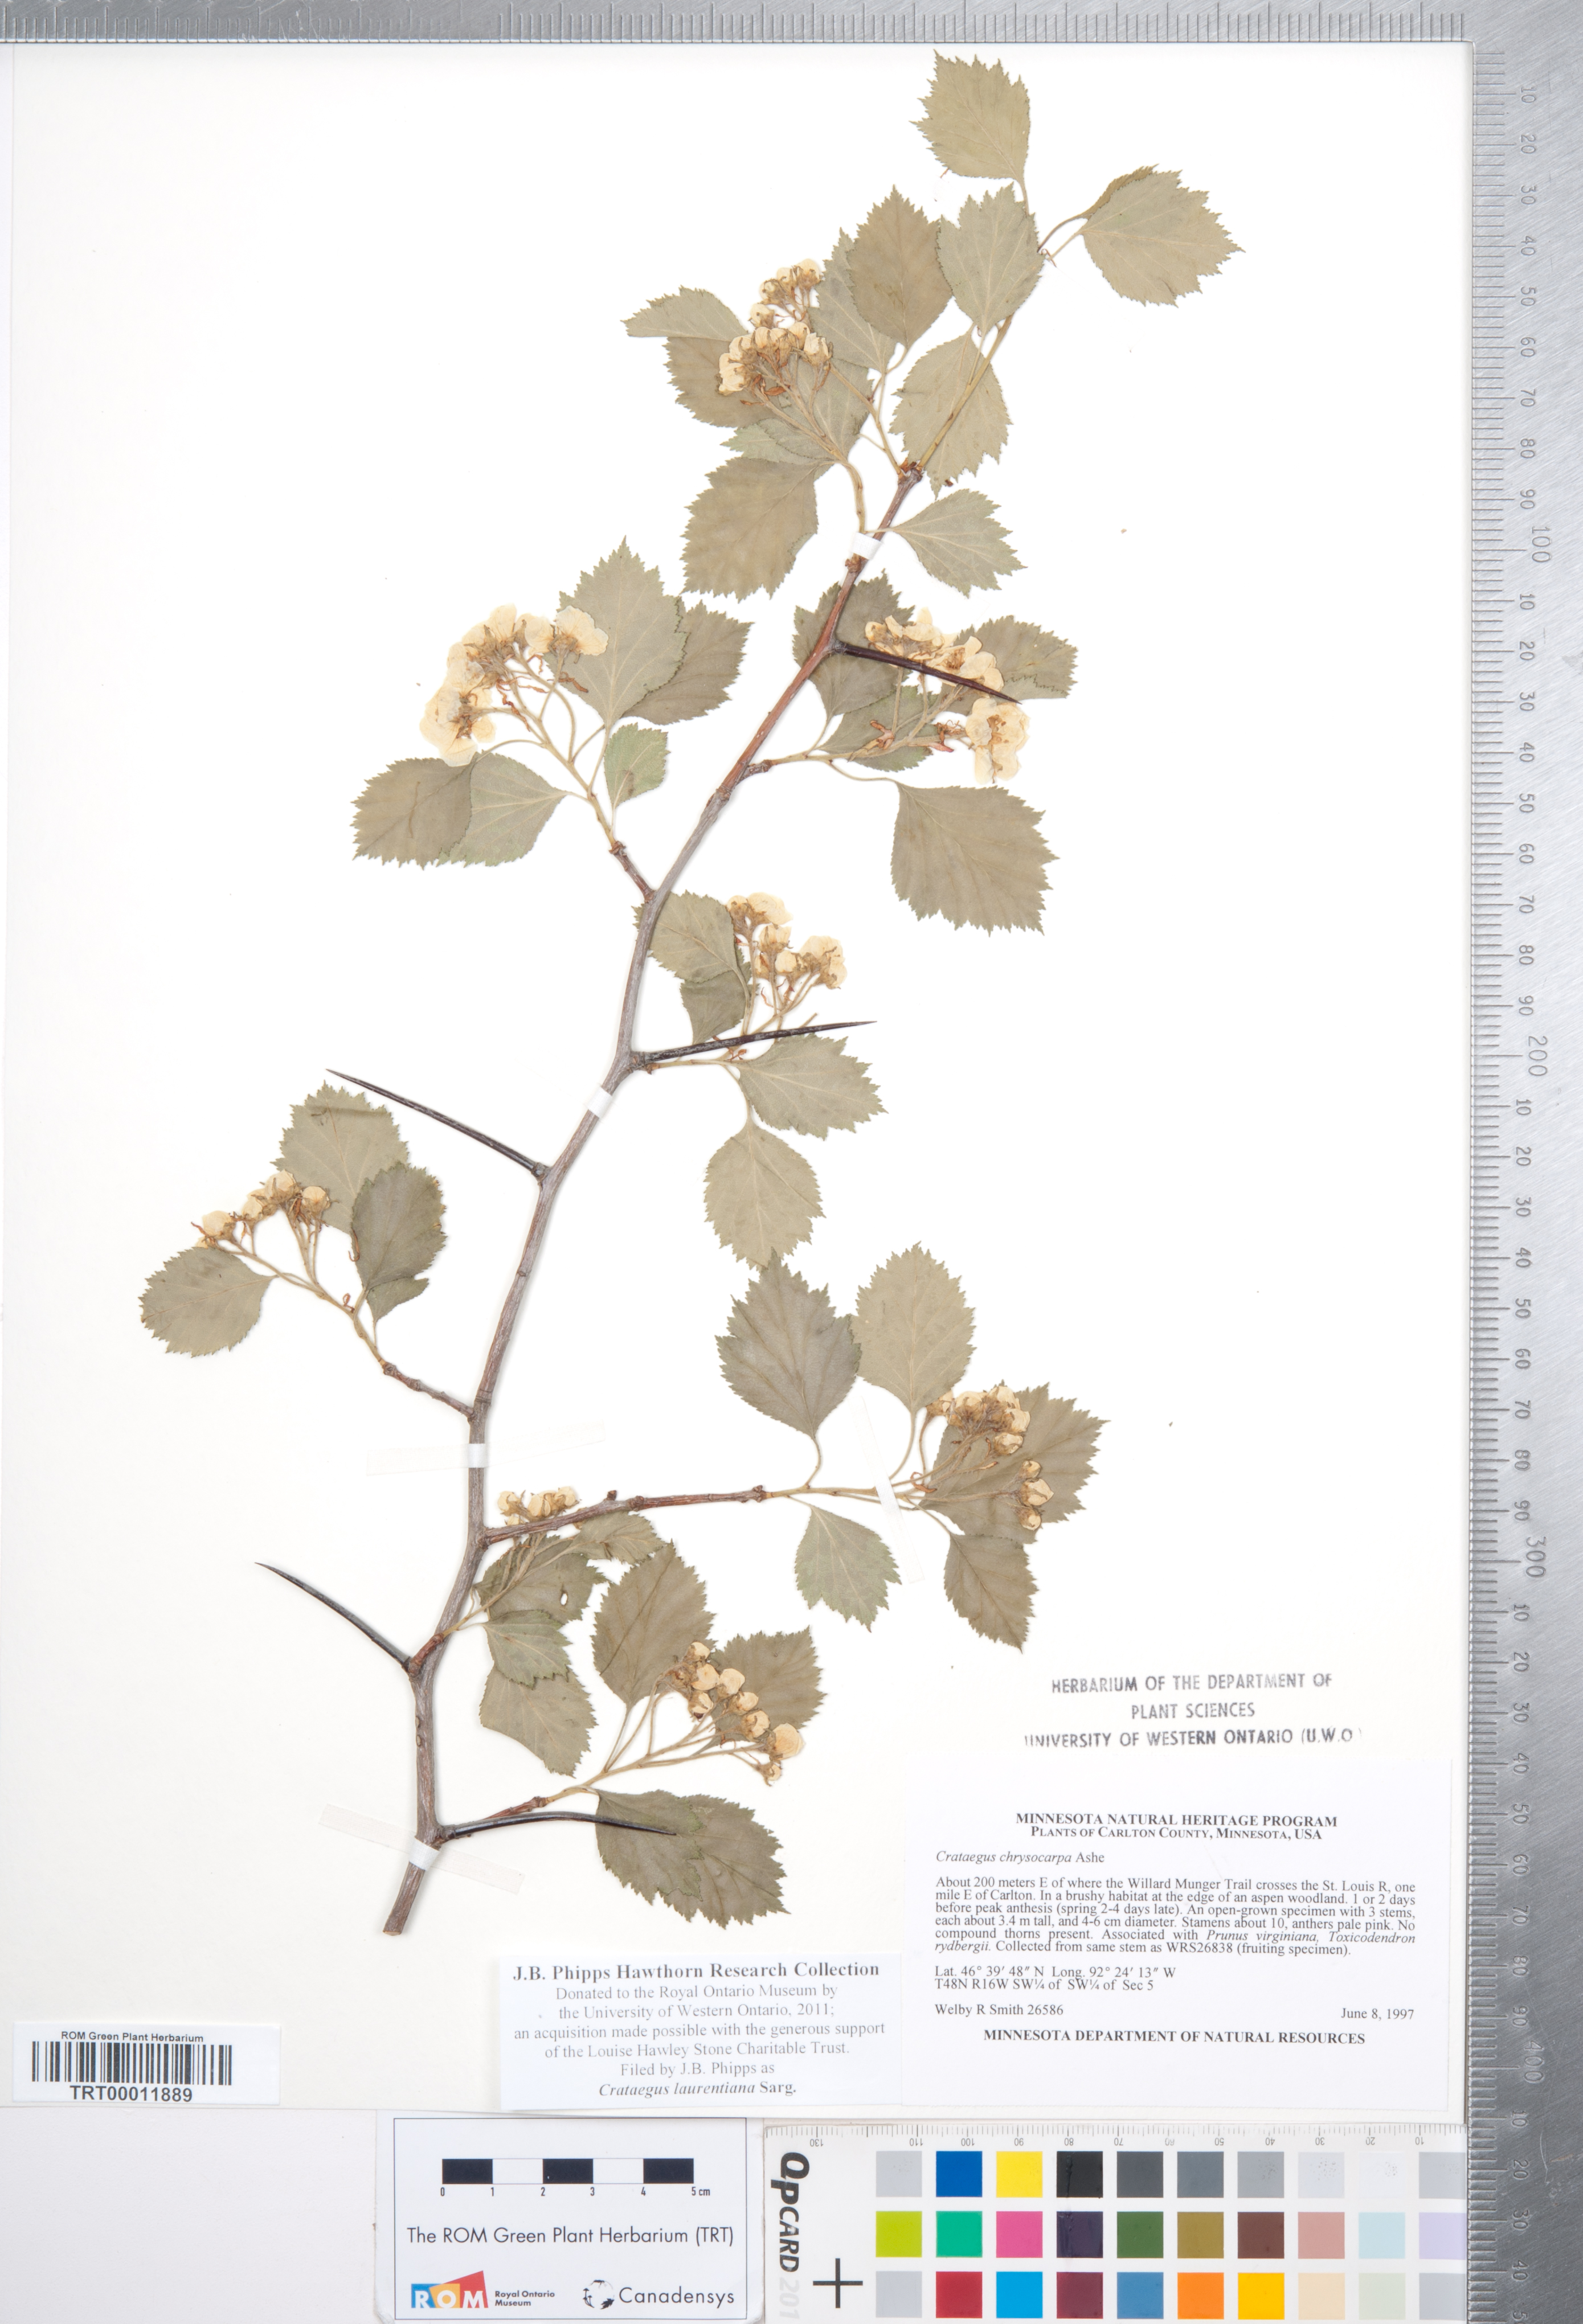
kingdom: Plantae
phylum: Tracheophyta
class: Magnoliopsida
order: Rosales
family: Rosaceae
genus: Crataegus
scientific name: Crataegus jonesiae
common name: Jones' hawthorn
